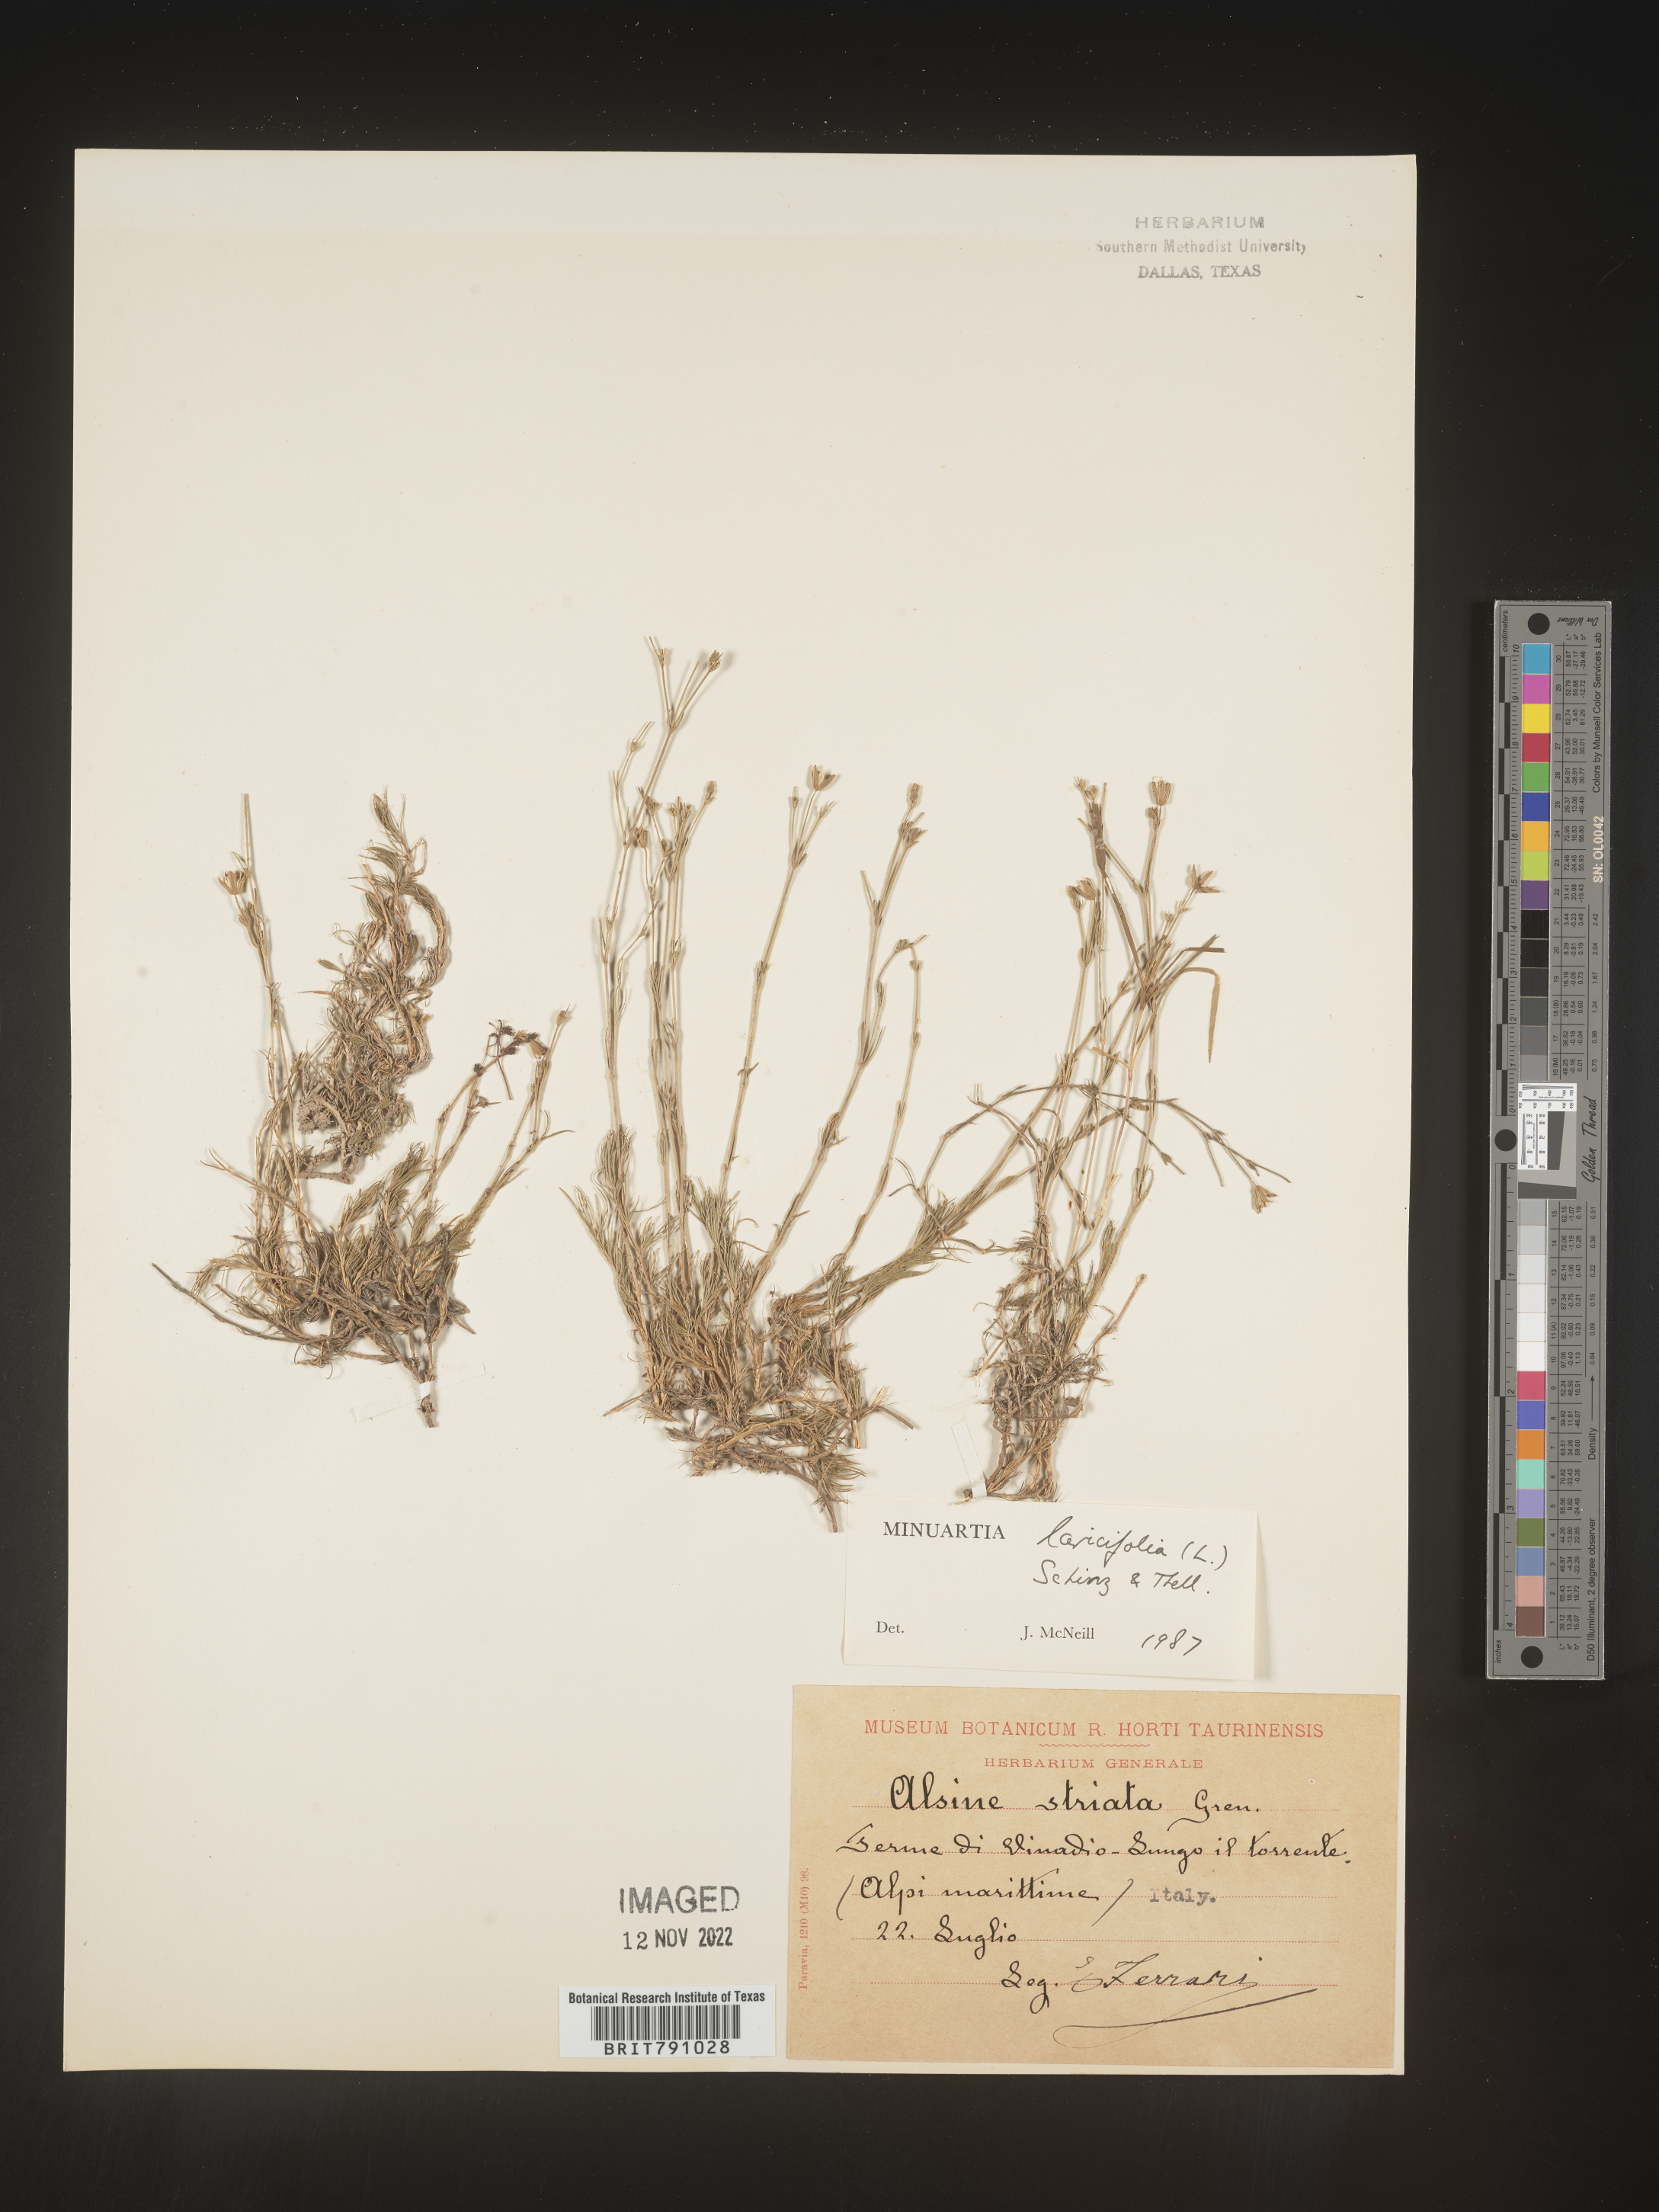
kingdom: Plantae
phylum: Tracheophyta
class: Magnoliopsida
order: Caryophyllales
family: Caryophyllaceae
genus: Minuartia
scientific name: Minuartia
